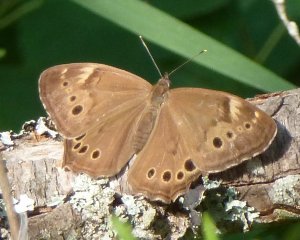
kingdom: Animalia
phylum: Arthropoda
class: Insecta
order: Lepidoptera
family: Nymphalidae
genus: Lethe
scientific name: Lethe anthedon
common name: Northern Pearly-Eye
